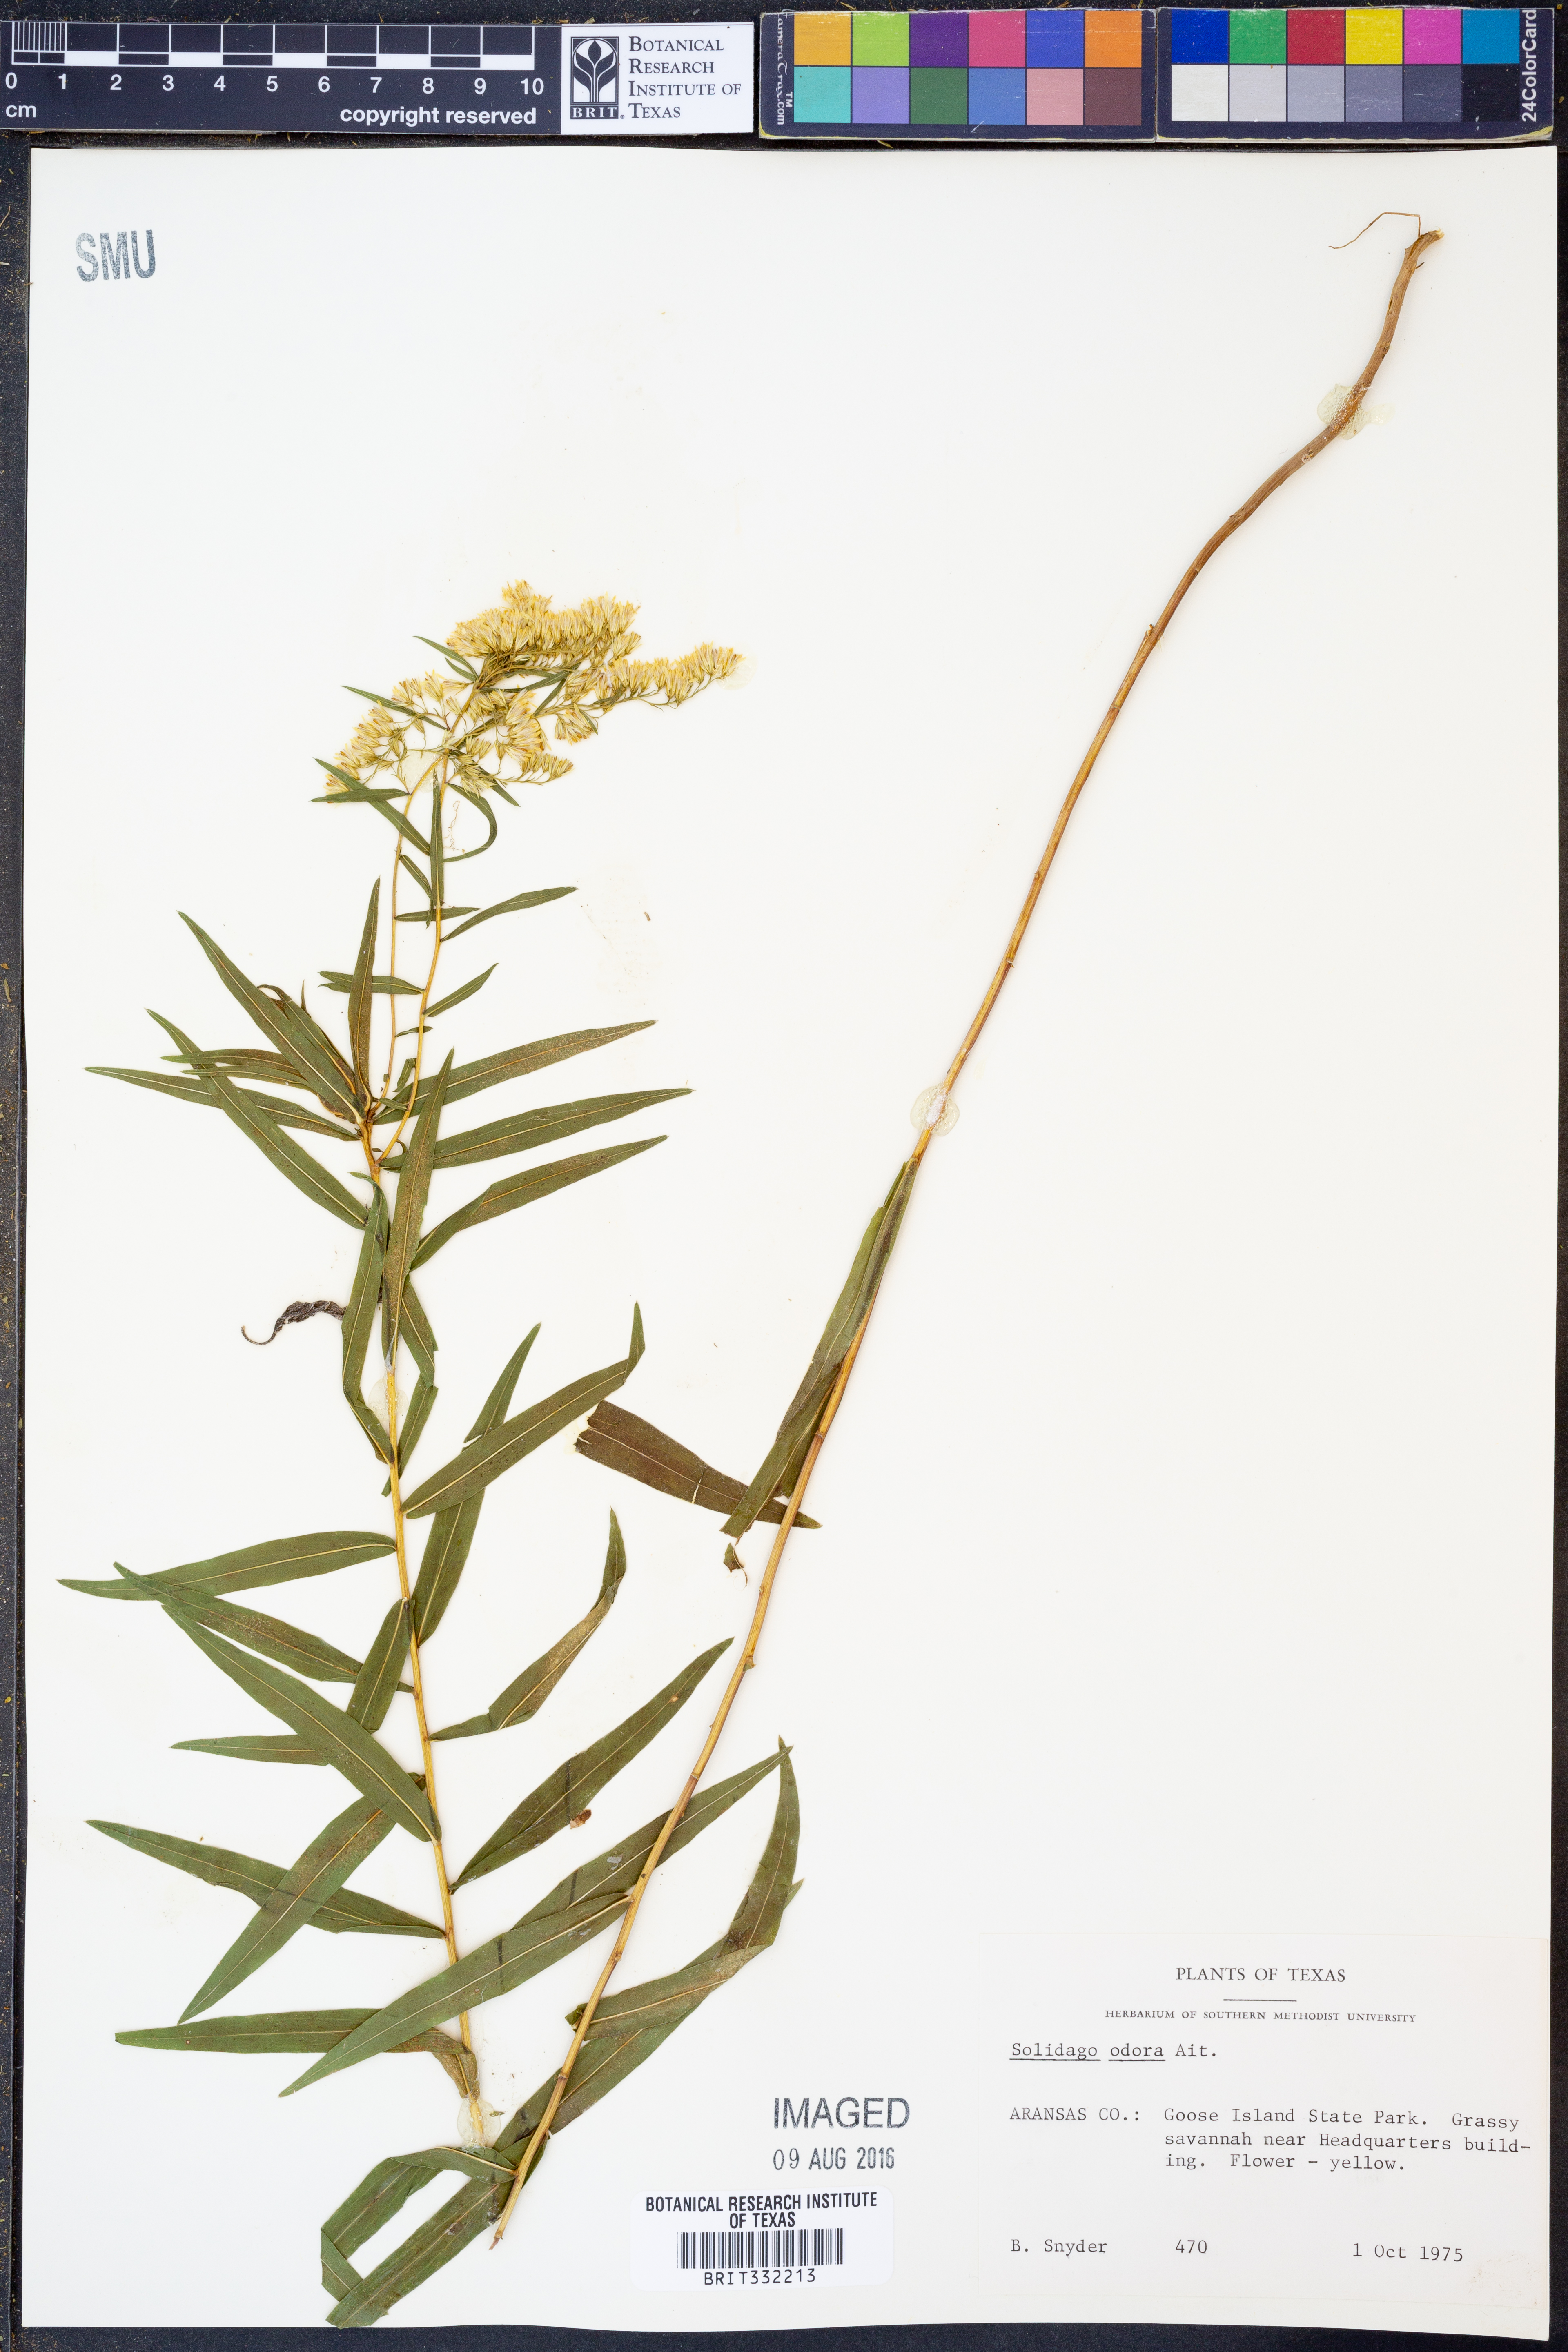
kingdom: Plantae
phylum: Tracheophyta
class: Magnoliopsida
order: Asterales
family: Asteraceae
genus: Solidago
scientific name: Solidago rugosa
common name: Rough-stemmed goldenrod
